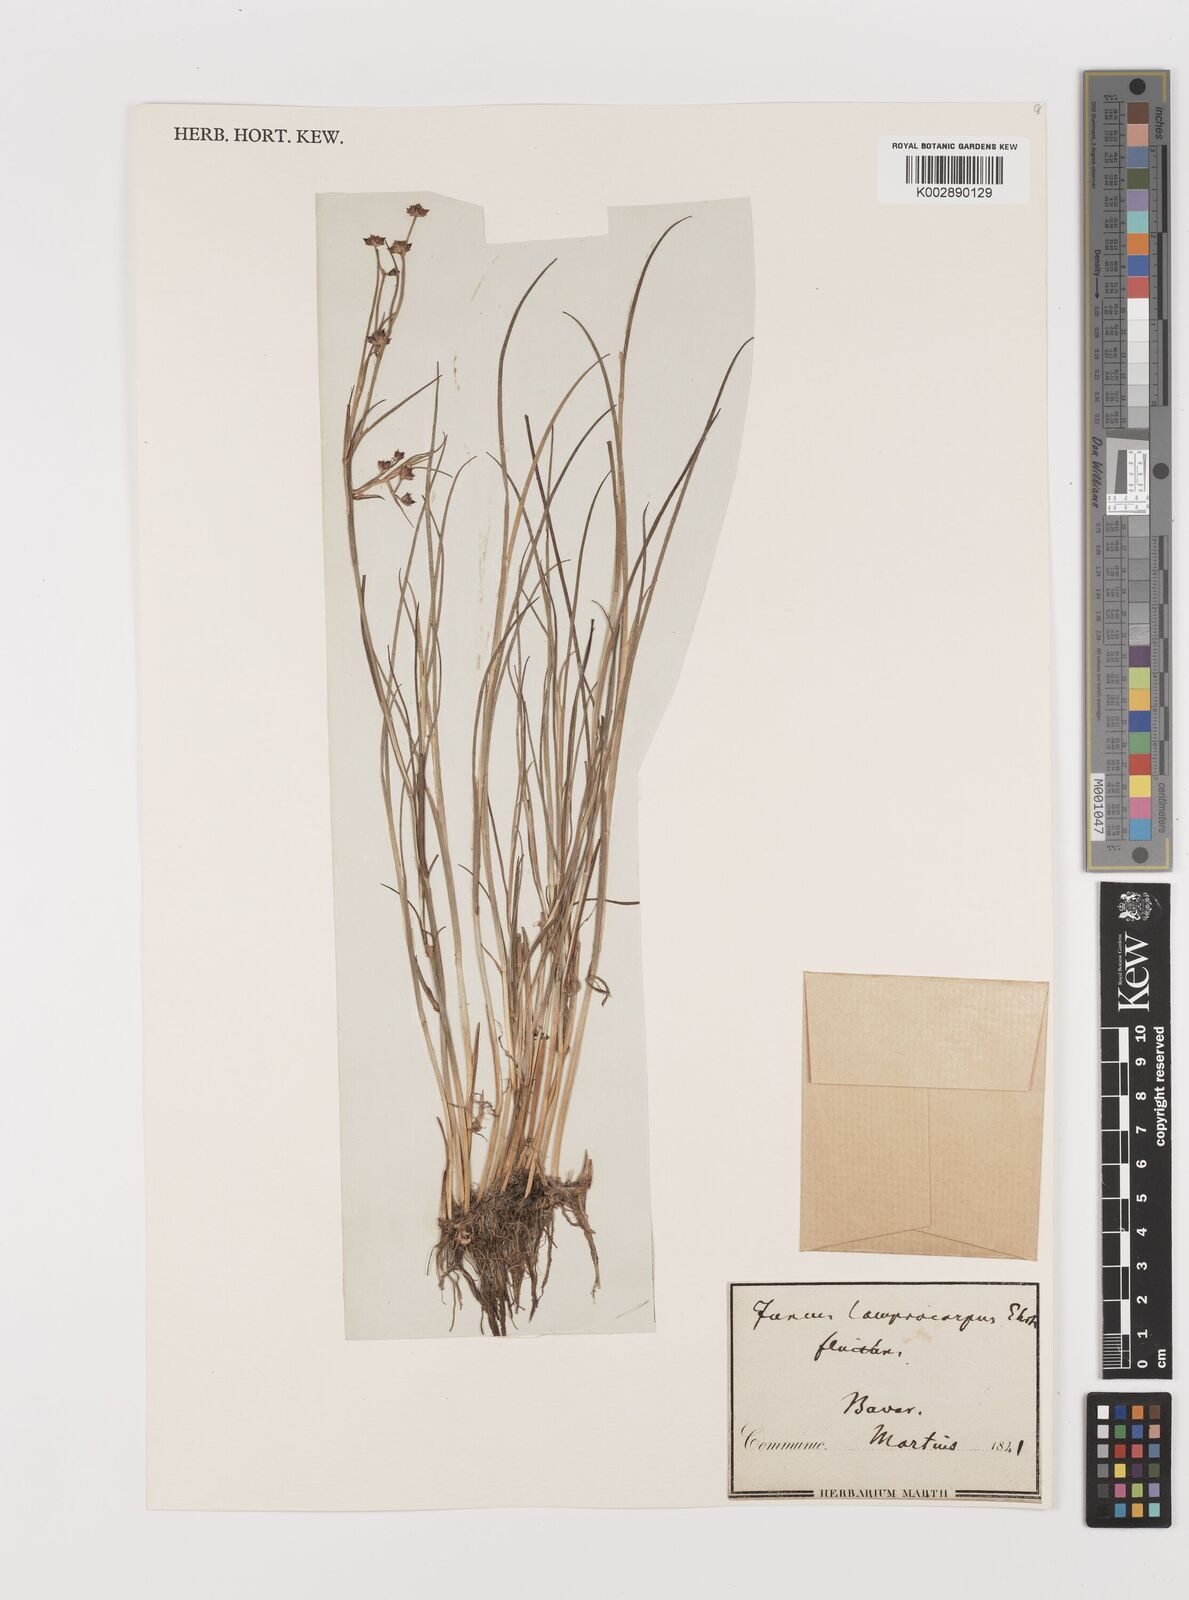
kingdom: Plantae
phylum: Tracheophyta
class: Liliopsida
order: Poales
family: Juncaceae
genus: Juncus
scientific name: Juncus articulatus
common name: Jointed rush
